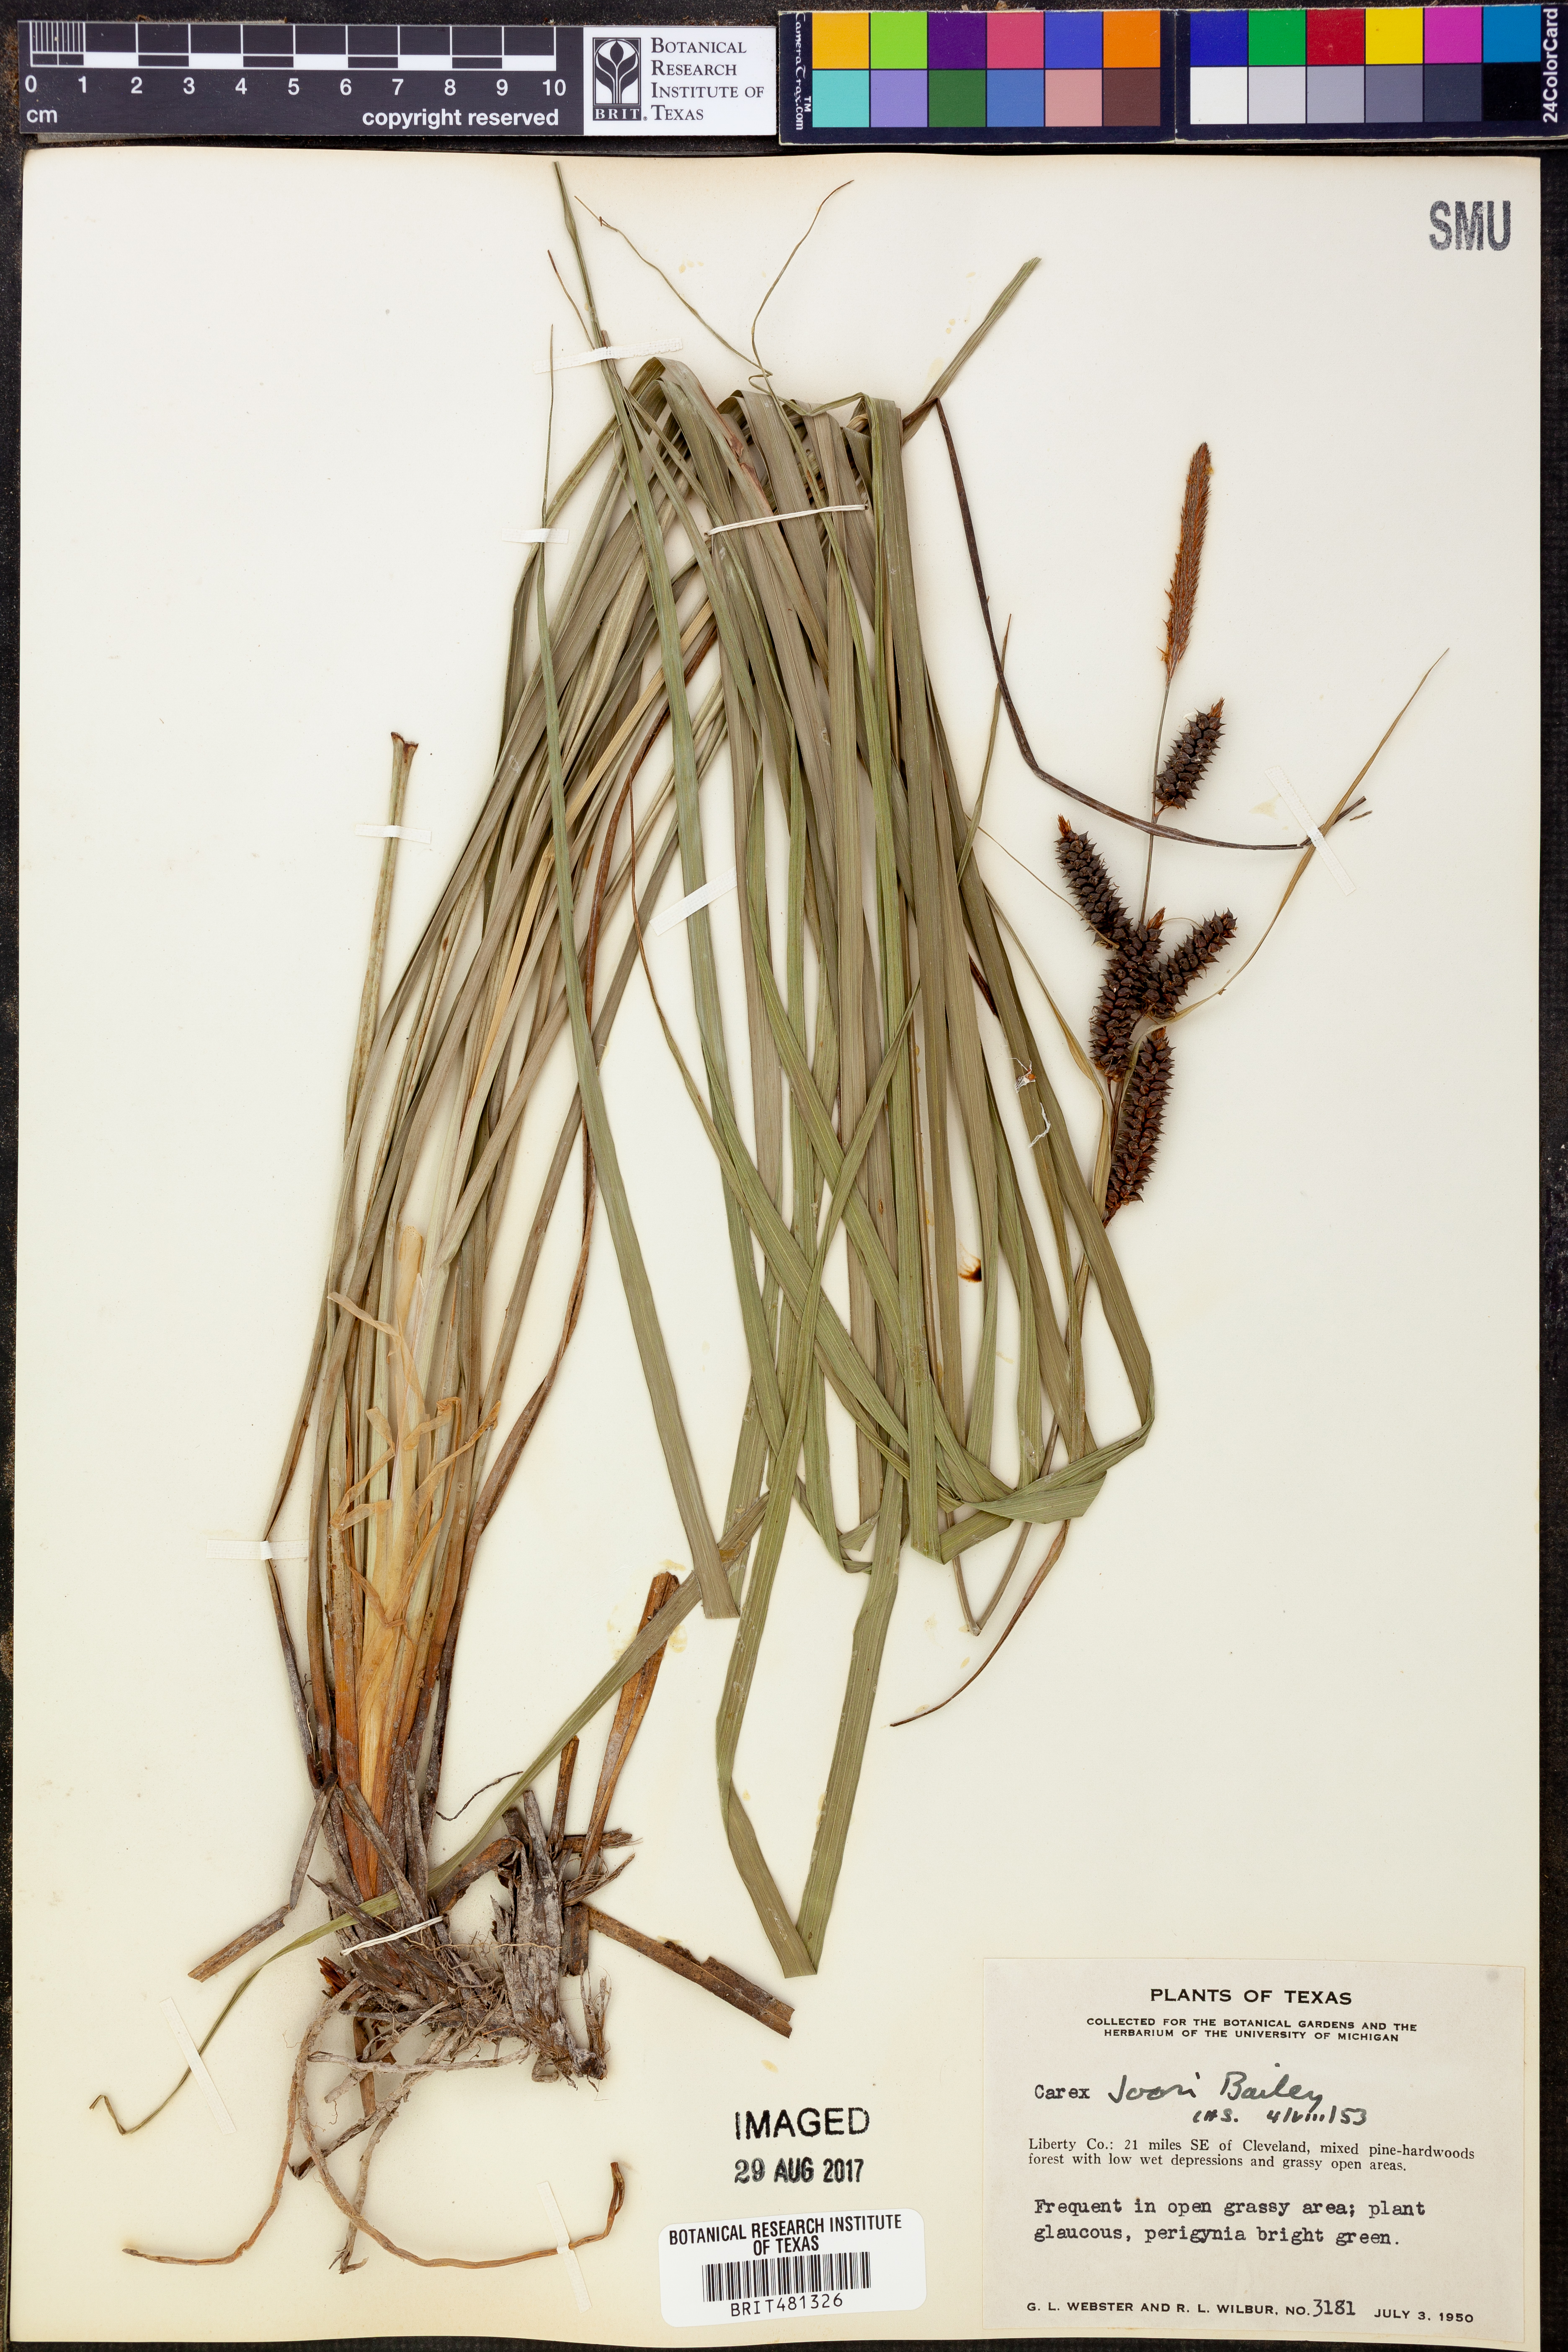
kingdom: Plantae
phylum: Tracheophyta
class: Liliopsida
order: Poales
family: Cyperaceae
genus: Carex
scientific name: Carex joorii
